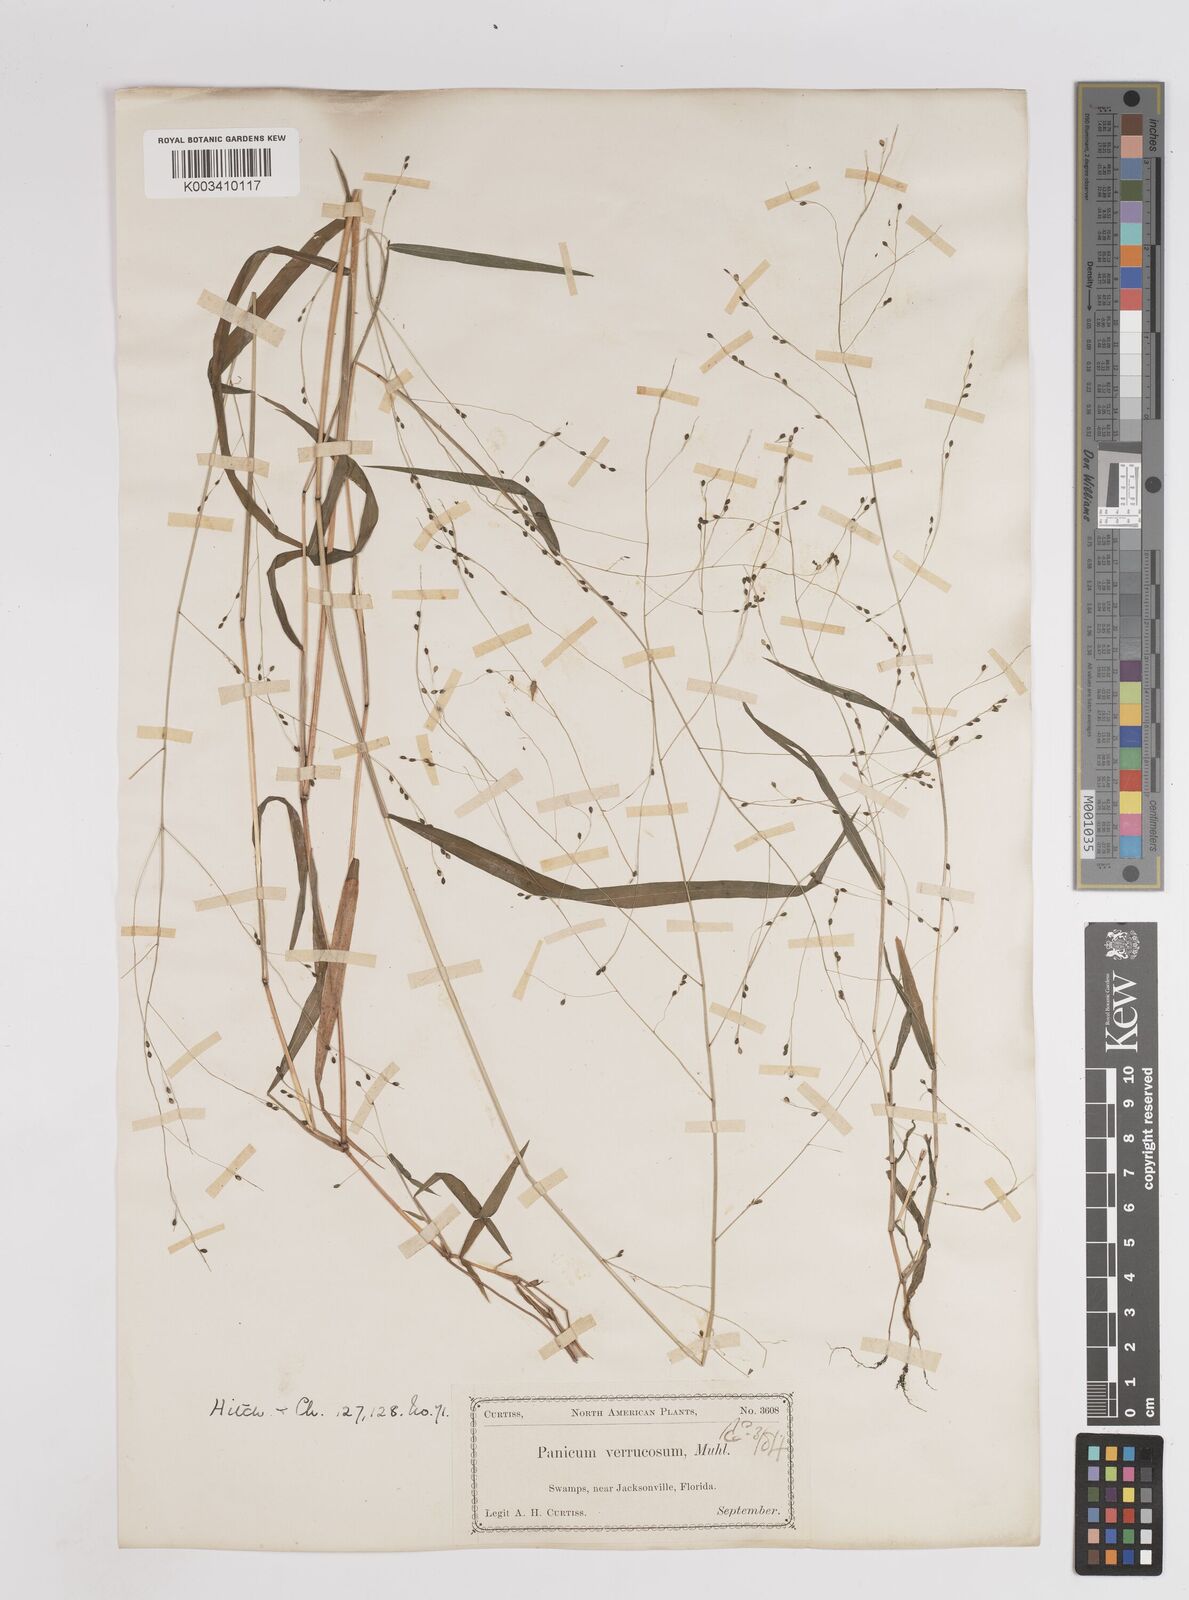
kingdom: Plantae
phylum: Tracheophyta
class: Liliopsida
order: Poales
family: Poaceae
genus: Kellochloa
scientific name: Kellochloa verrucosa
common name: Warty panic grass
